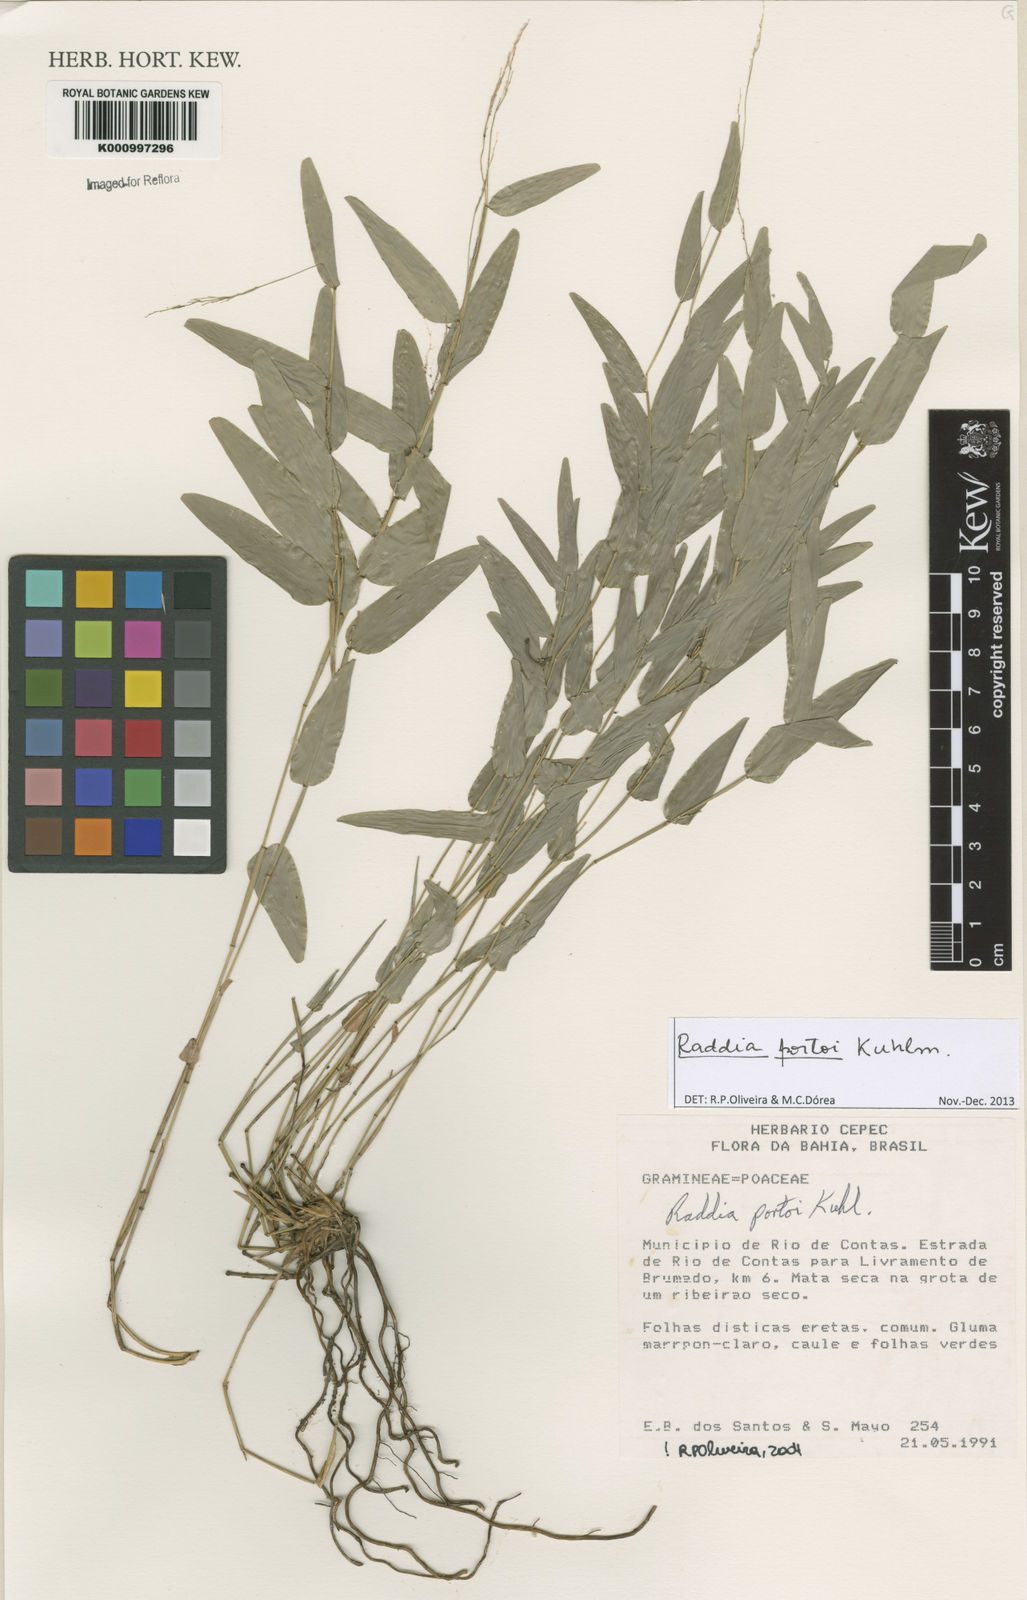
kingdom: Plantae
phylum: Tracheophyta
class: Liliopsida
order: Poales
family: Poaceae
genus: Raddia
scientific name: Raddia portoi
